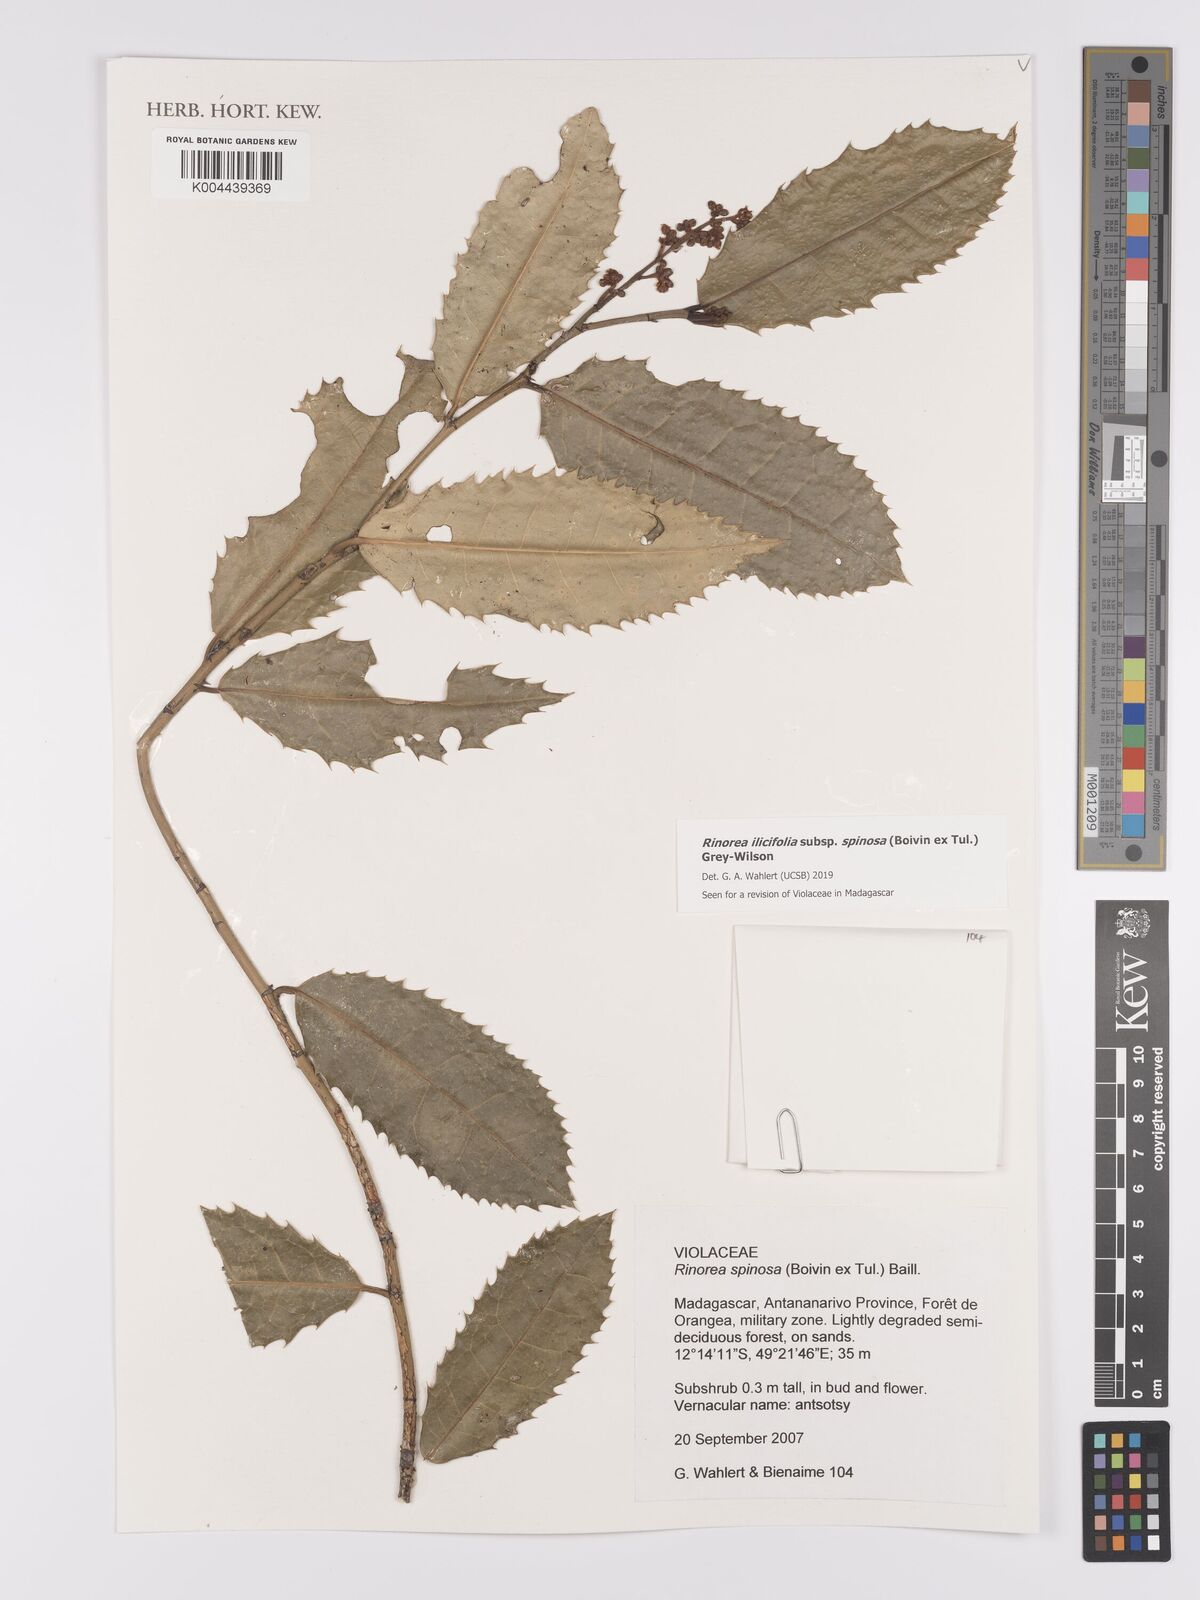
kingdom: Plantae
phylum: Tracheophyta
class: Magnoliopsida
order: Malpighiales
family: Violaceae
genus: Rinorea
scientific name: Rinorea spinosa
